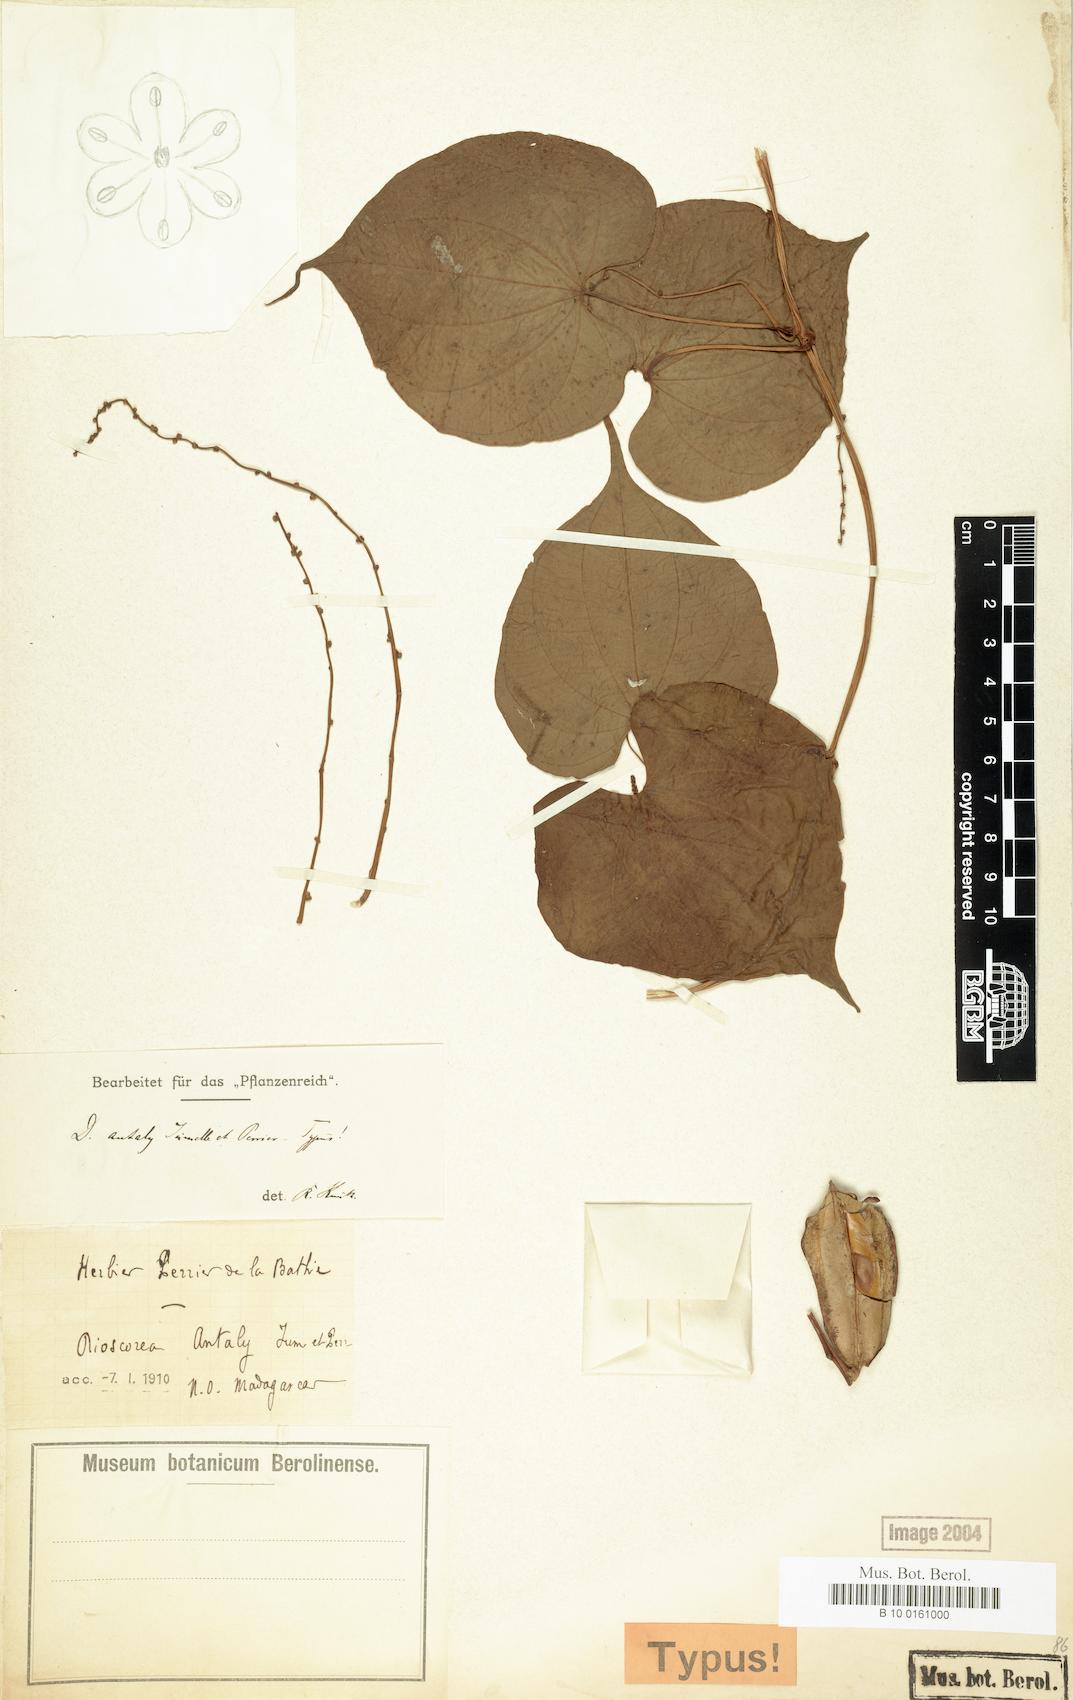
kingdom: Plantae
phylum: Tracheophyta
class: Liliopsida
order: Dioscoreales
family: Dioscoreaceae
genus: Dioscorea
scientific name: Dioscorea antaly
